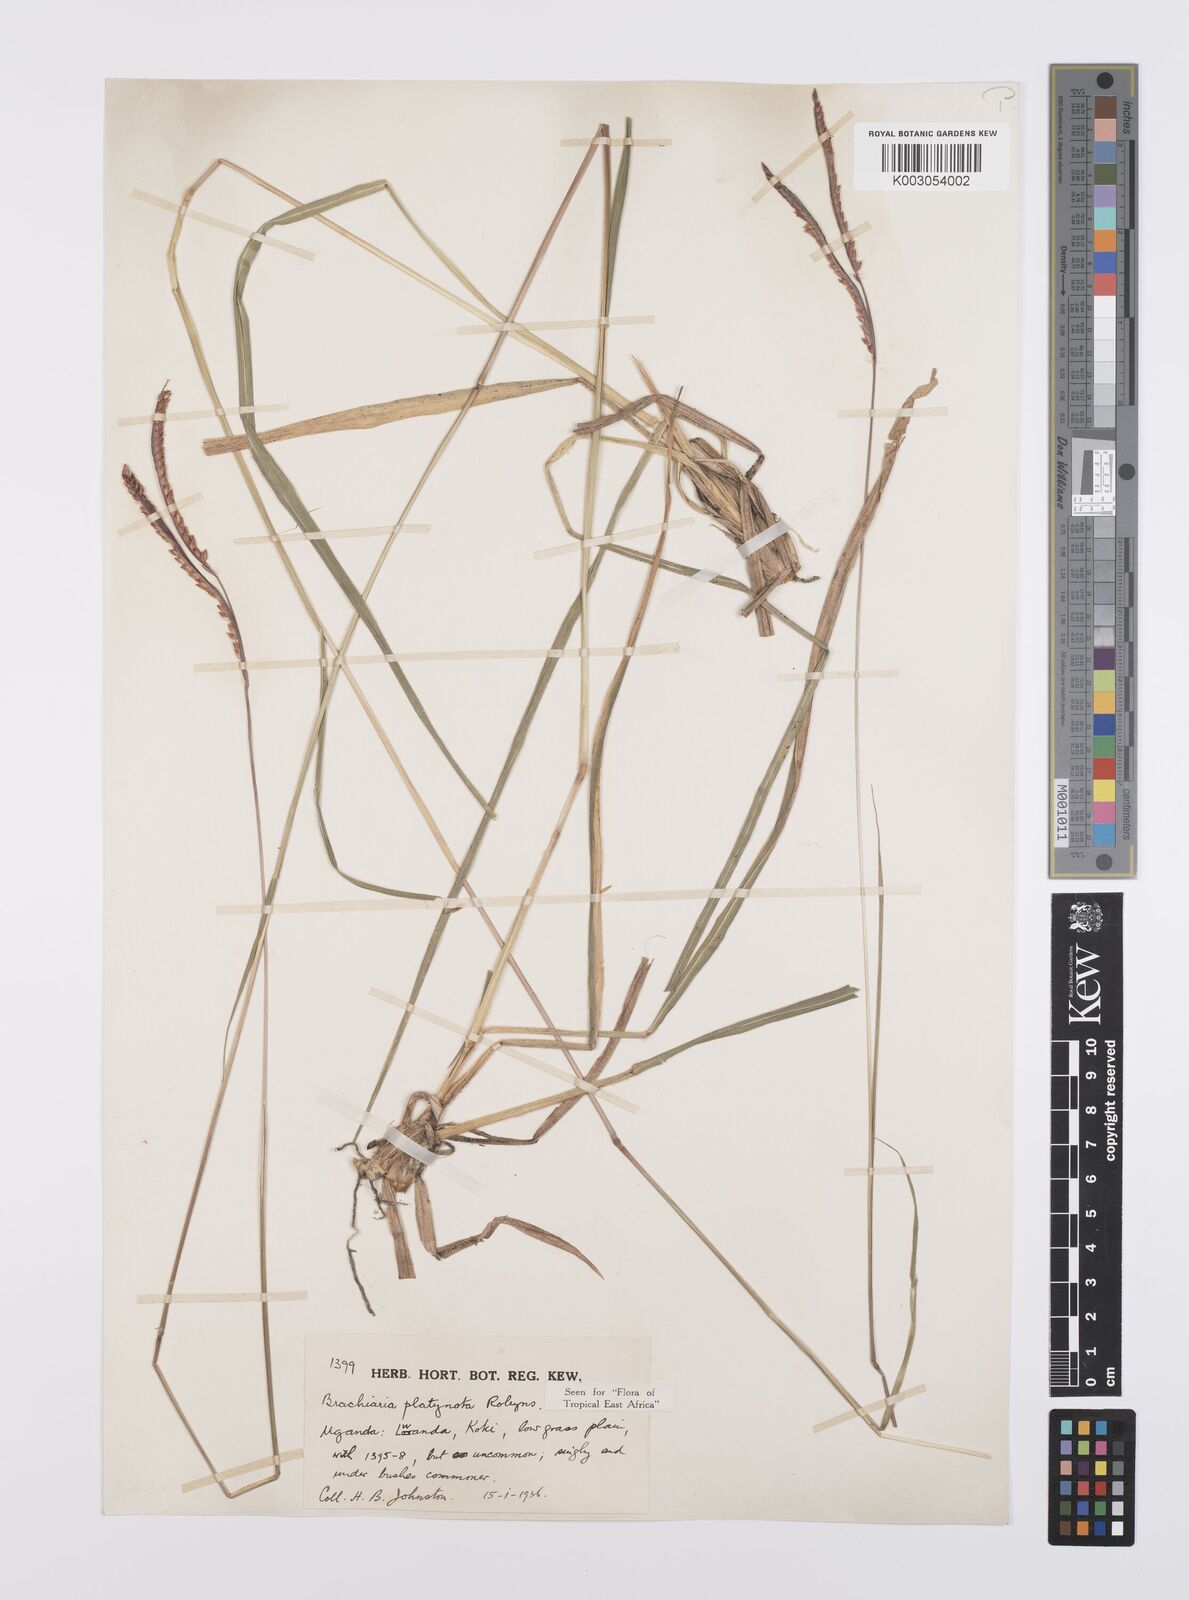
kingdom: Plantae
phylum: Tracheophyta
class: Liliopsida
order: Poales
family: Poaceae
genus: Urochloa
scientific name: Urochloa platynota
